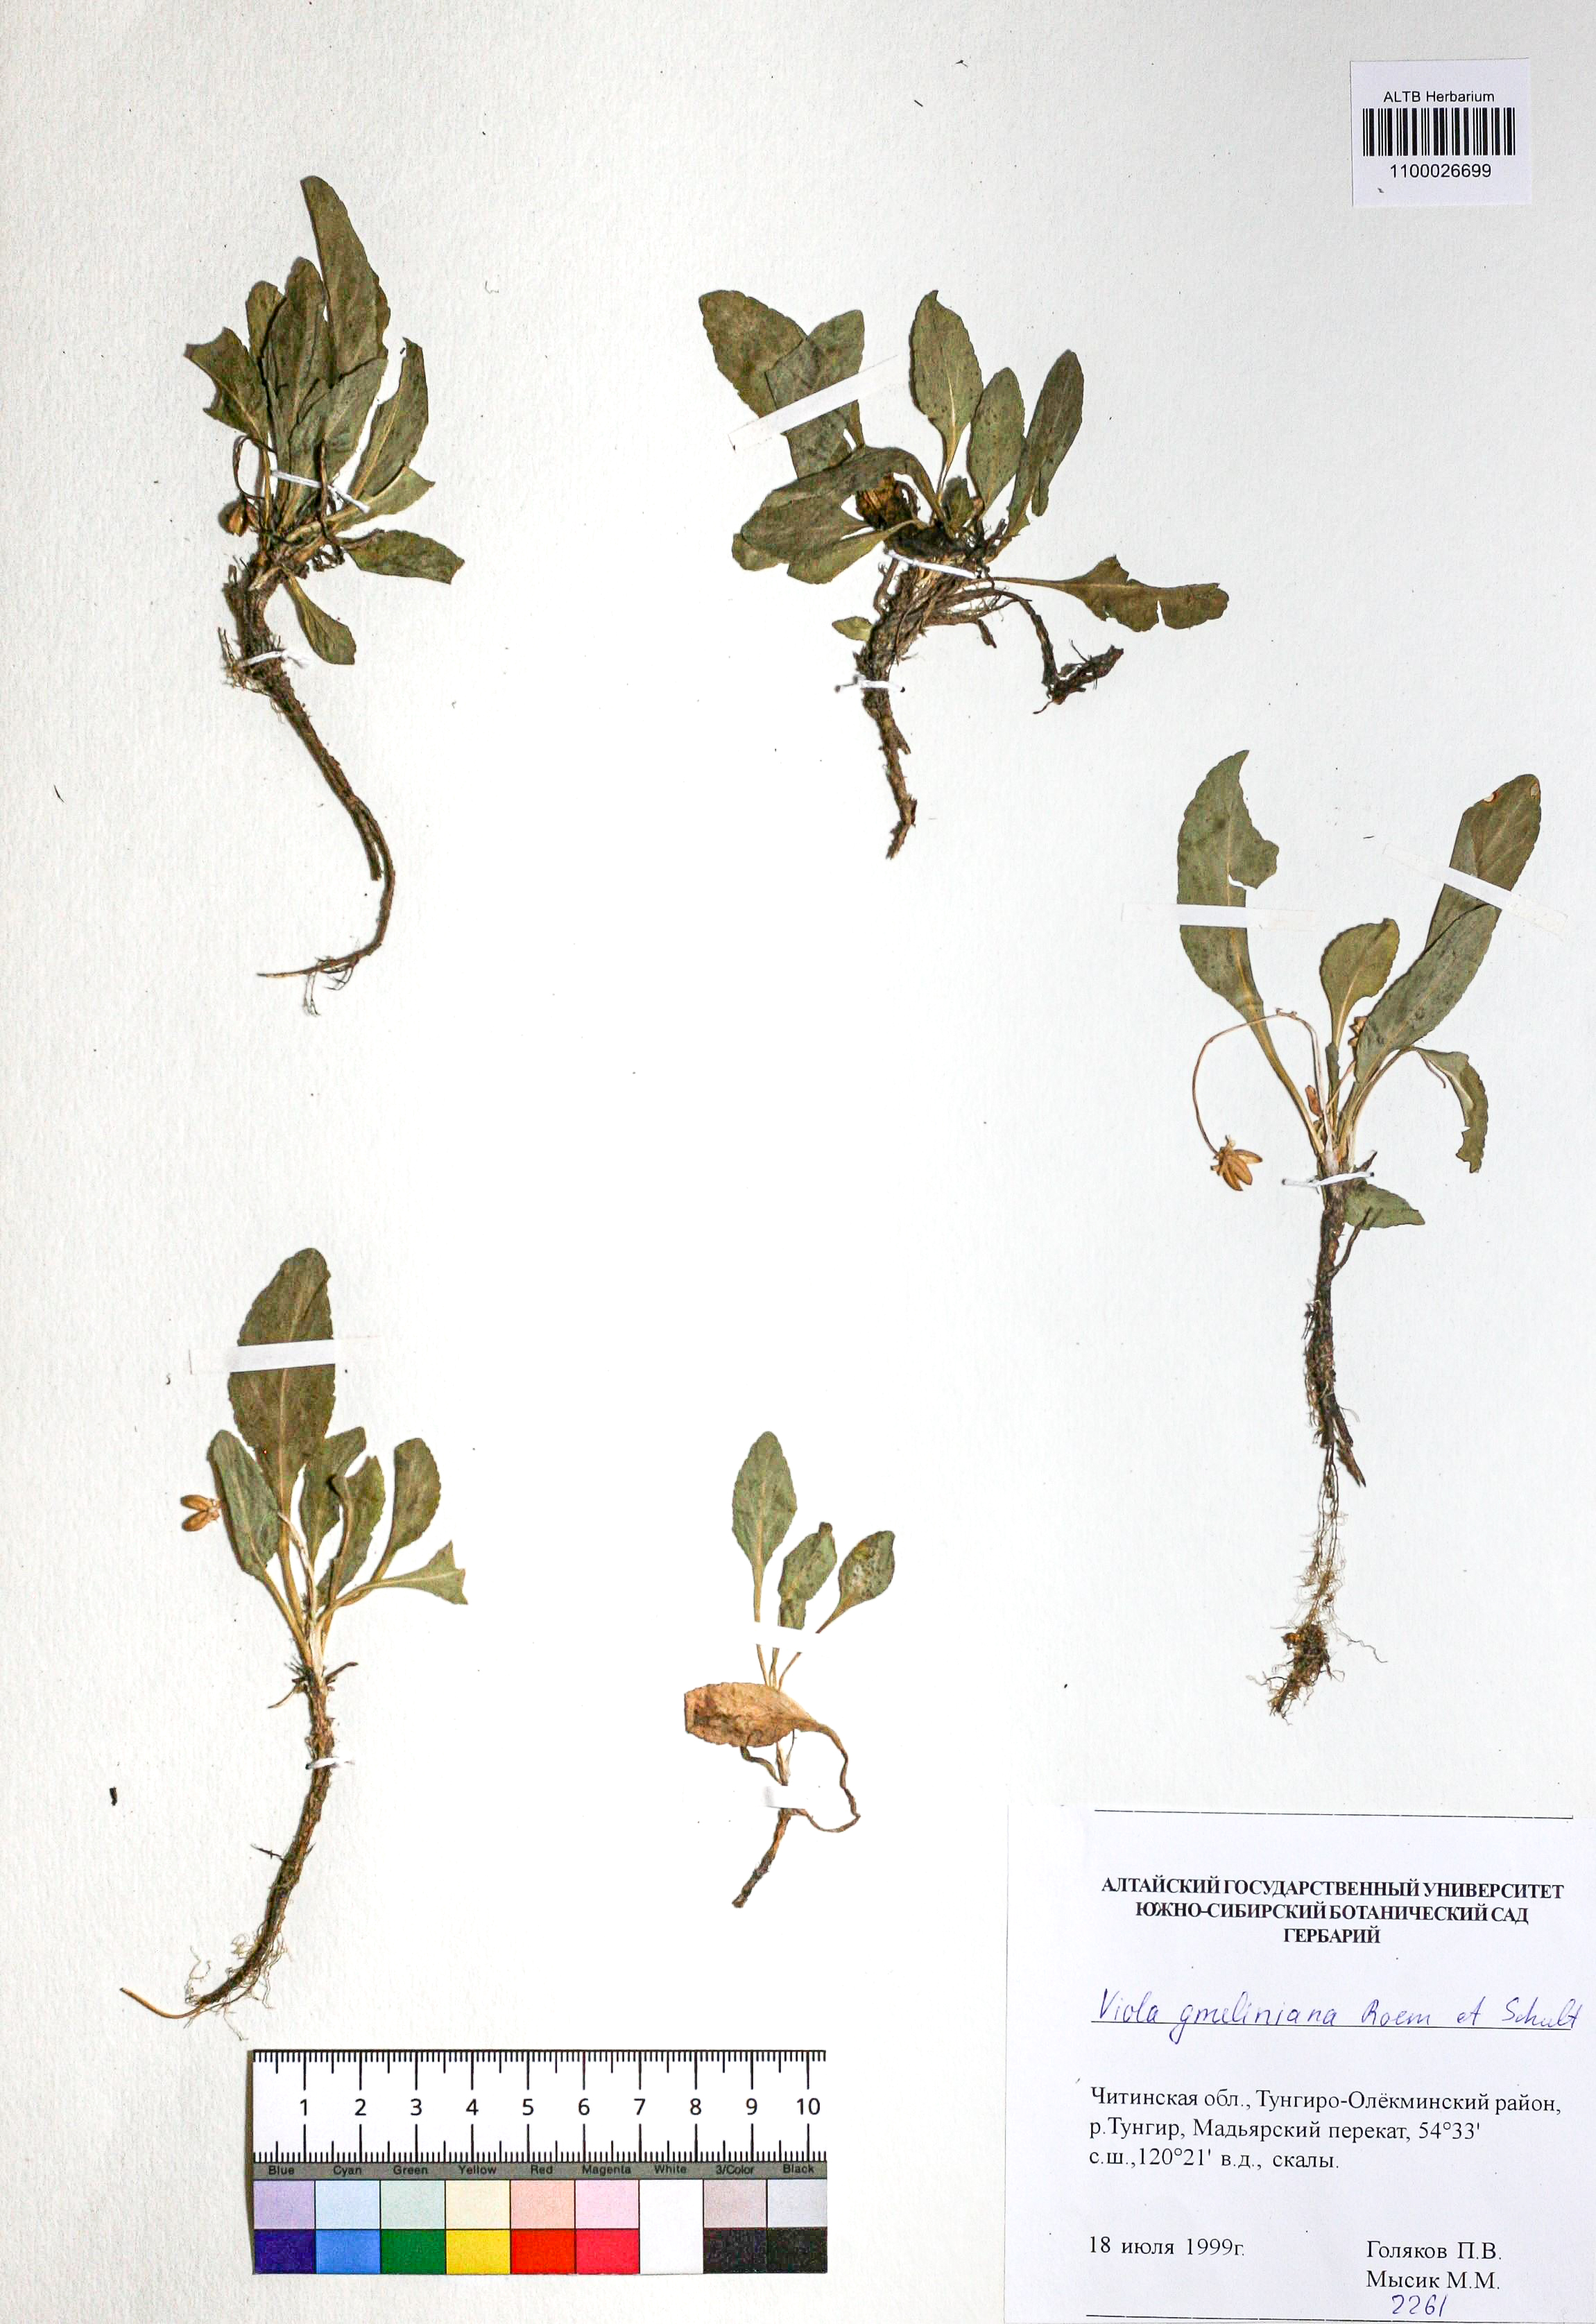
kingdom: Plantae
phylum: Tracheophyta
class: Magnoliopsida
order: Malpighiales
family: Violaceae
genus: Viola
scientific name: Viola gmeliniana
